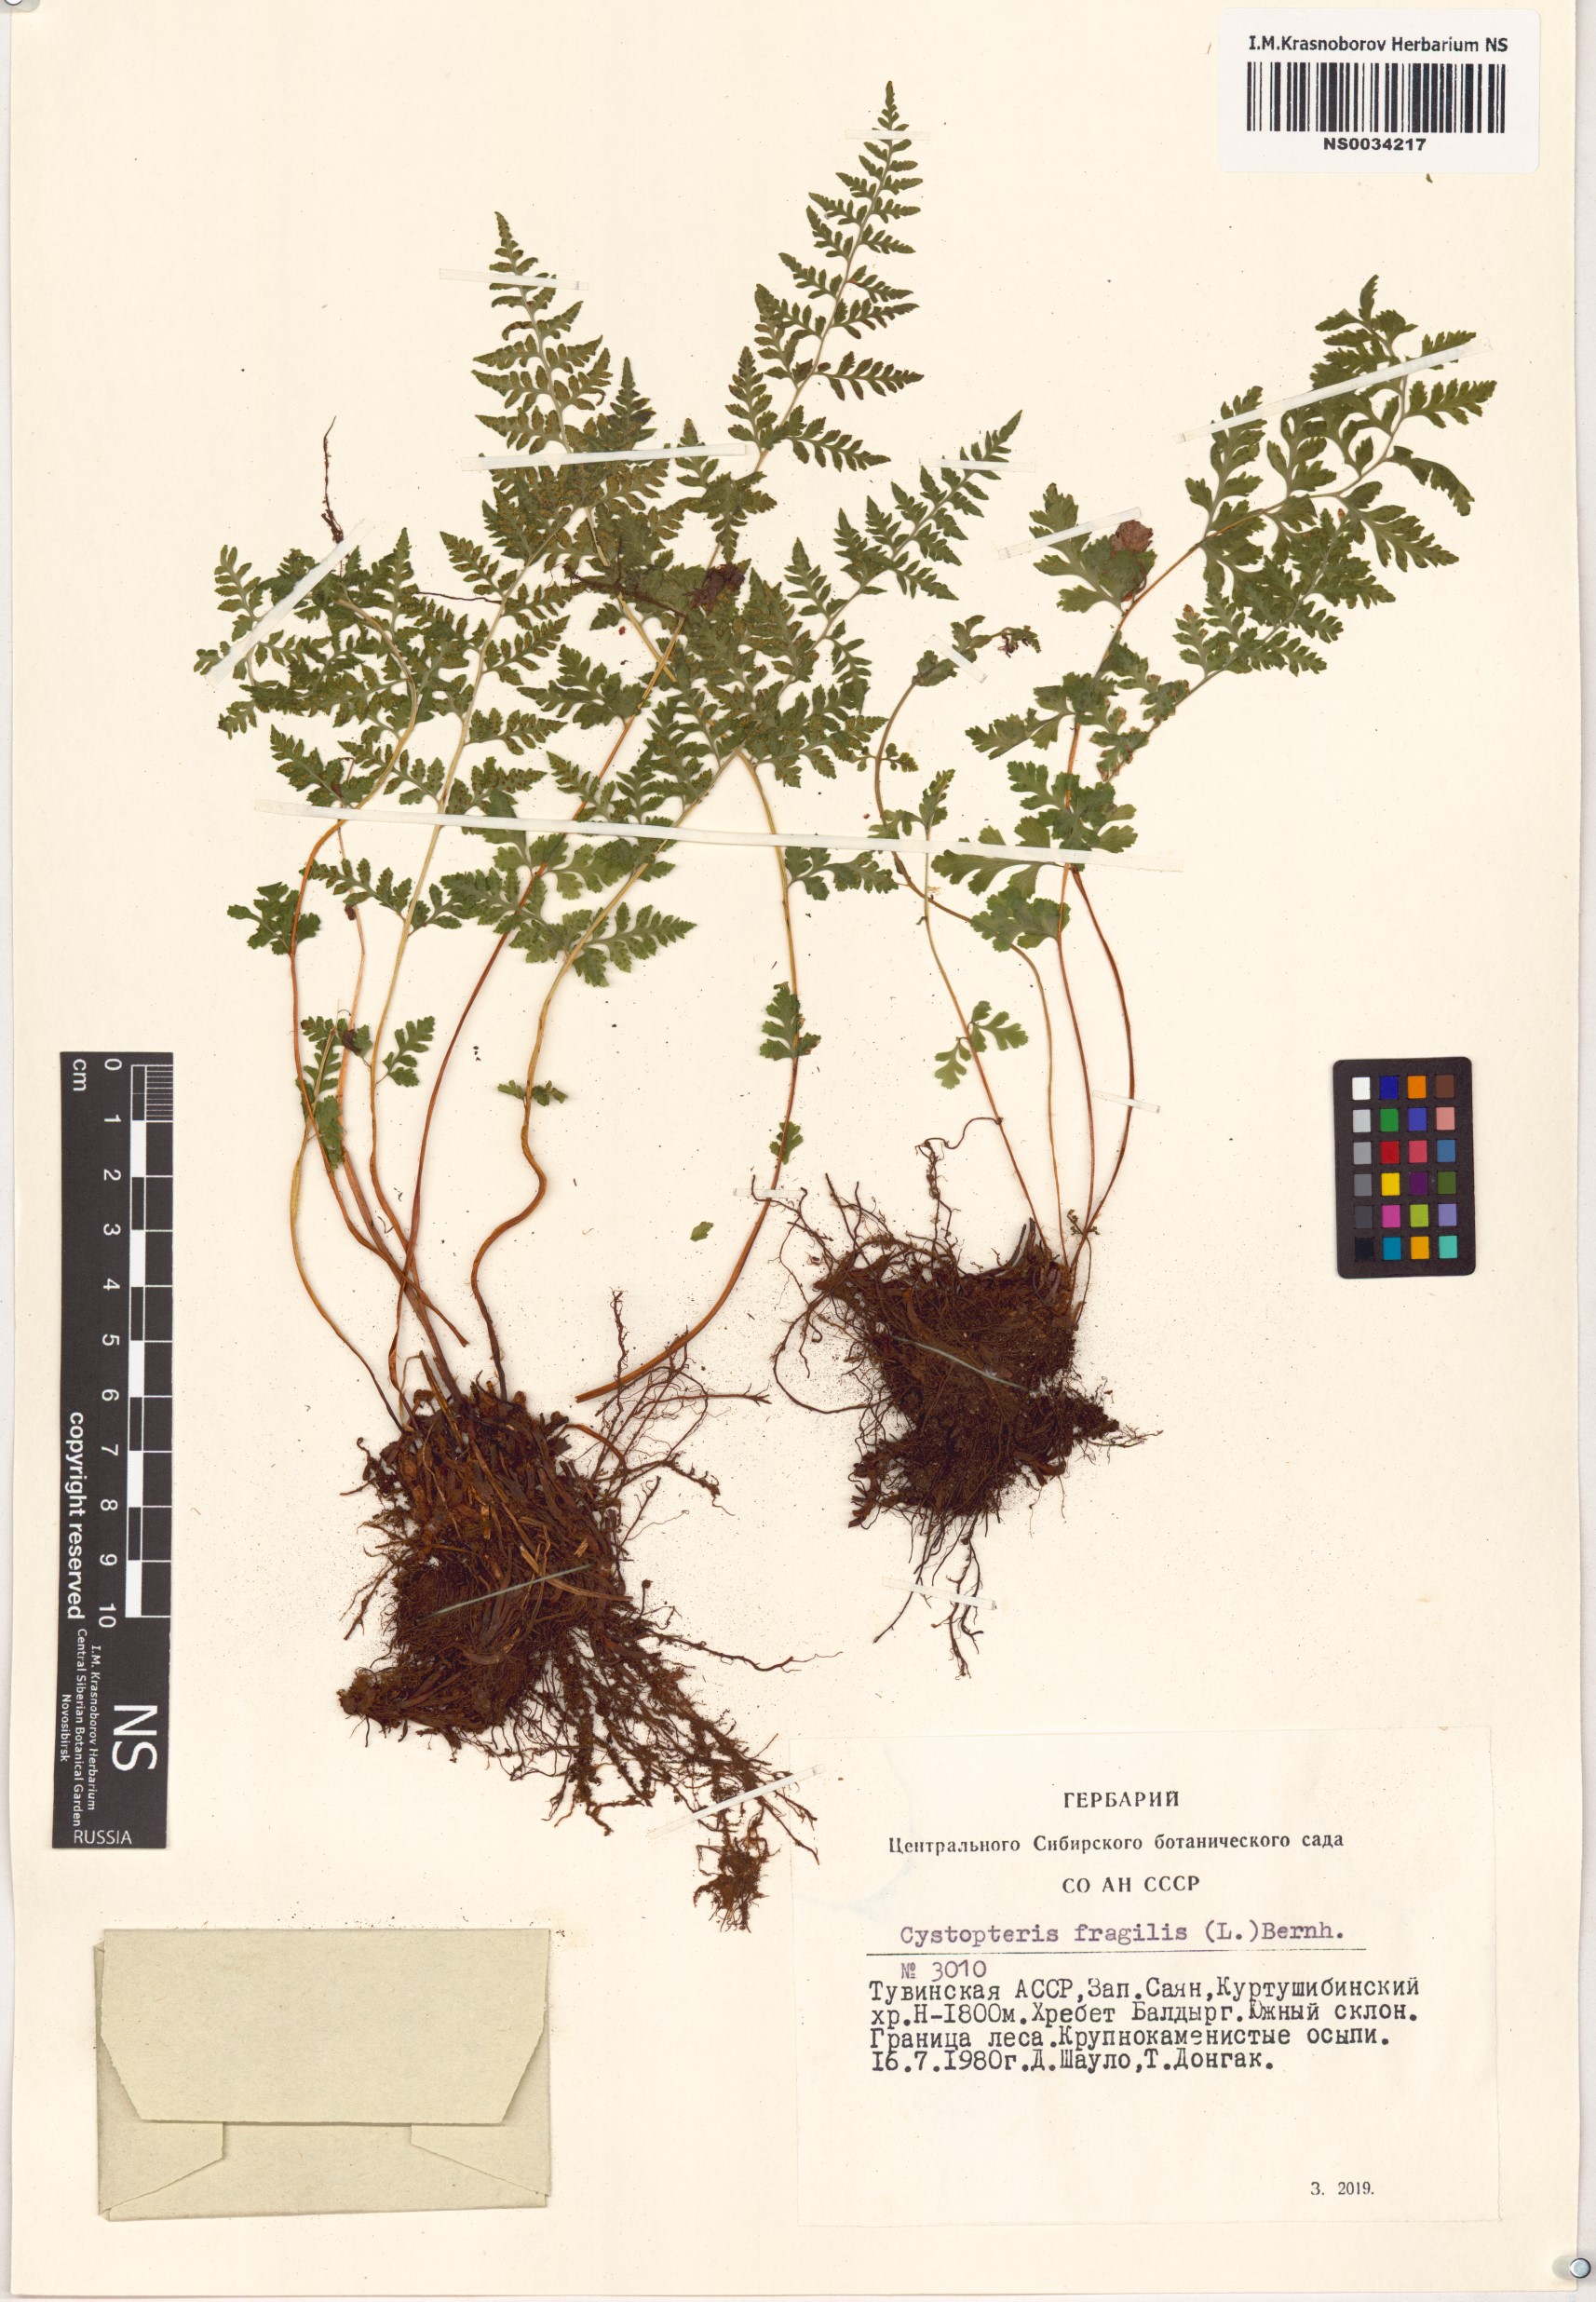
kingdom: Plantae
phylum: Tracheophyta
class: Polypodiopsida
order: Polypodiales
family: Cystopteridaceae
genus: Cystopteris
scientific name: Cystopteris fragilis
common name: Brittle bladder fern
